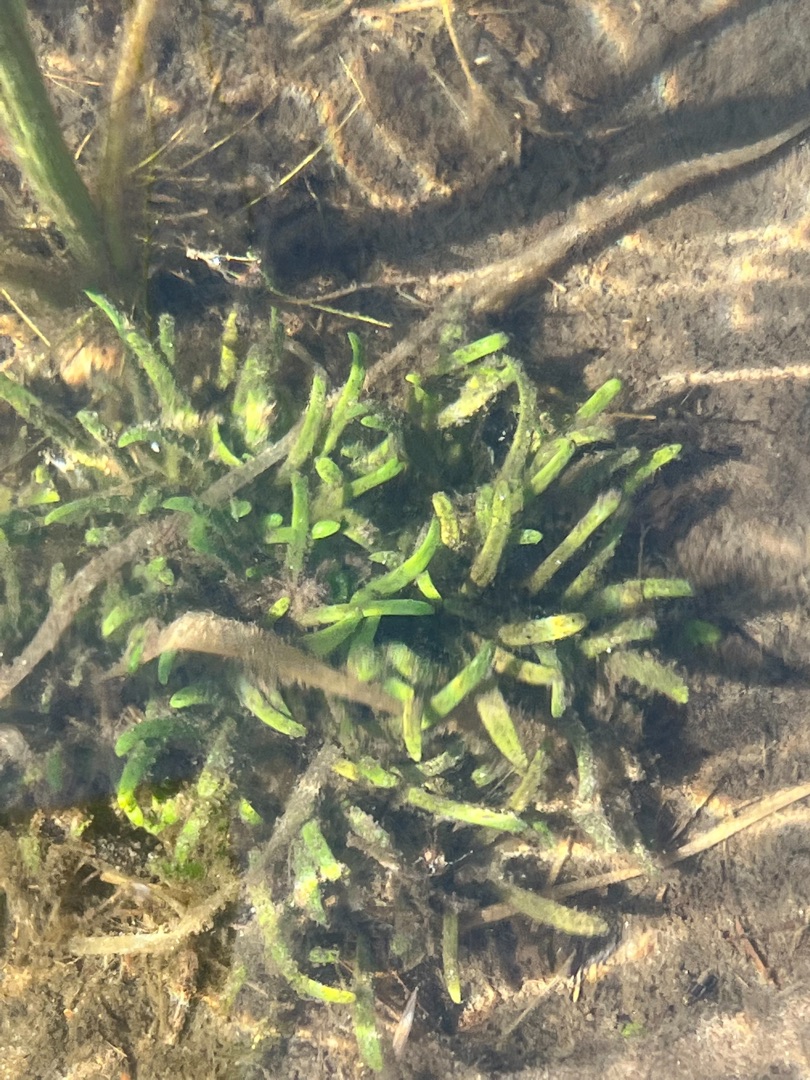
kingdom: Plantae
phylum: Tracheophyta
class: Magnoliopsida
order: Asterales
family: Campanulaceae
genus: Lobelia
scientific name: Lobelia dortmanna
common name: Tvepibet lobelie
